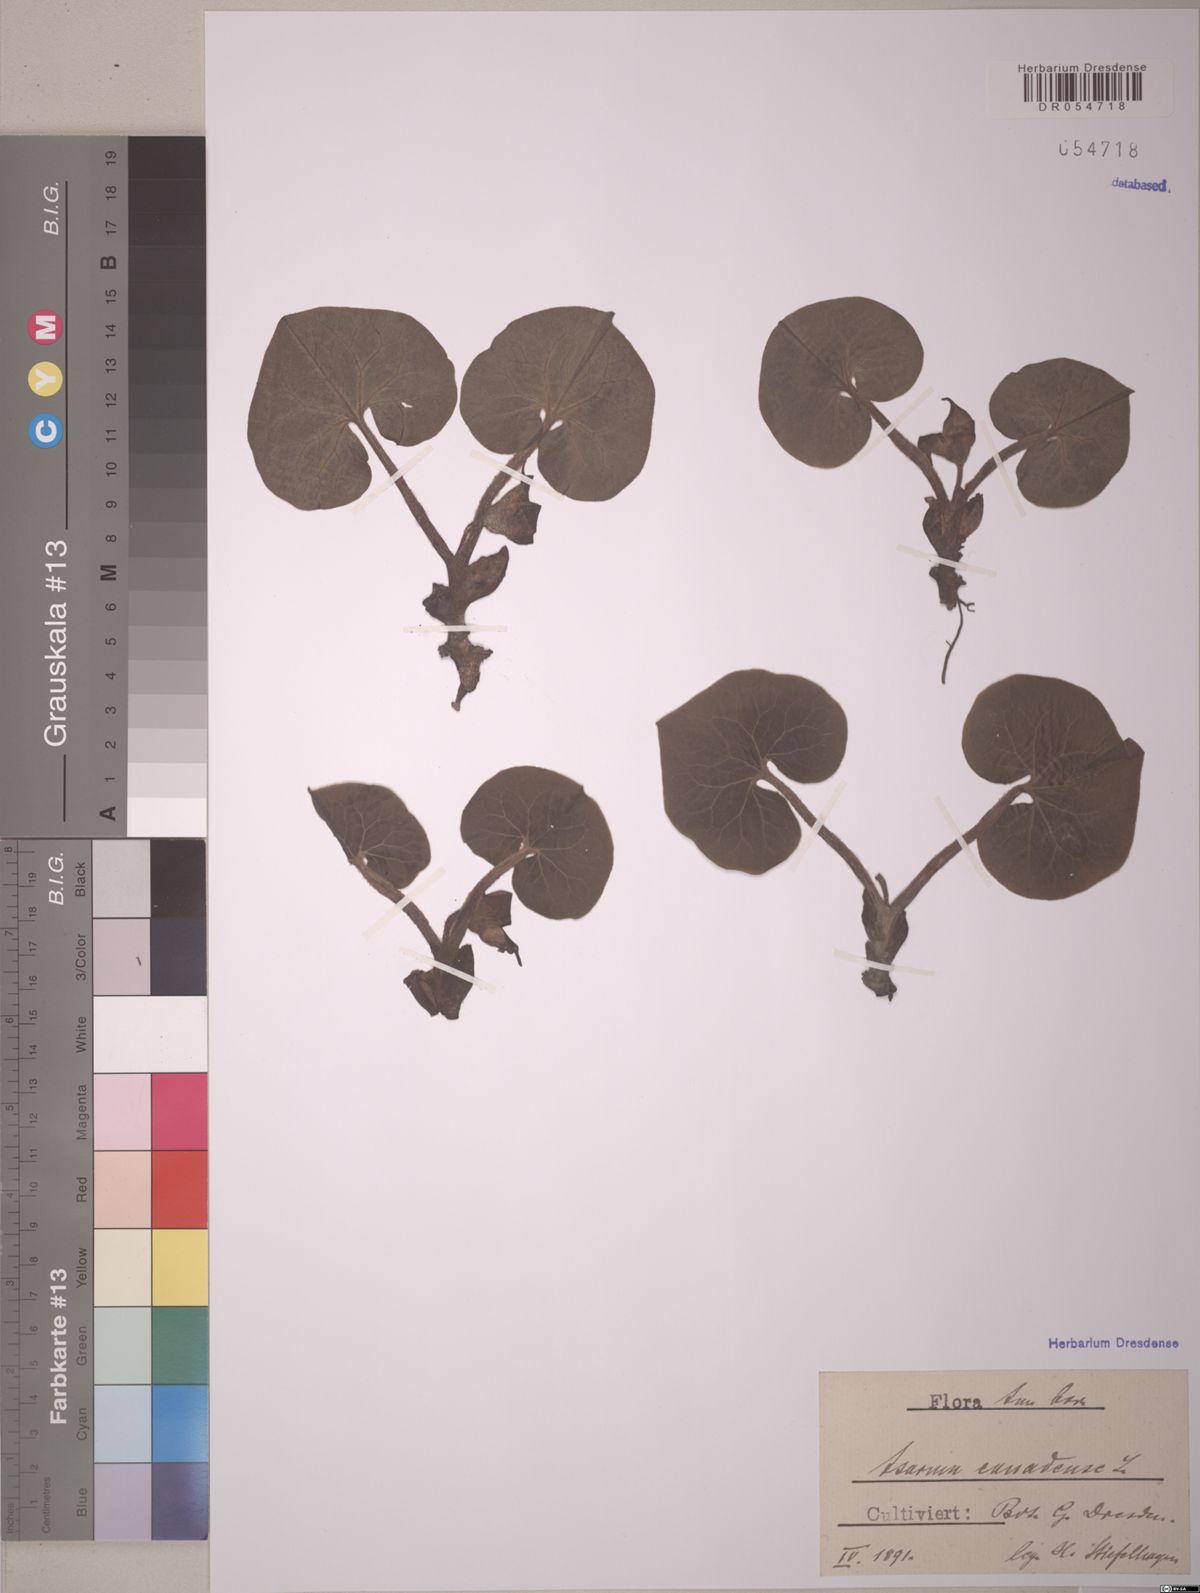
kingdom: Plantae
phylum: Tracheophyta
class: Magnoliopsida
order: Piperales
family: Aristolochiaceae
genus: Asarum
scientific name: Asarum canadense
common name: Wild ginger
